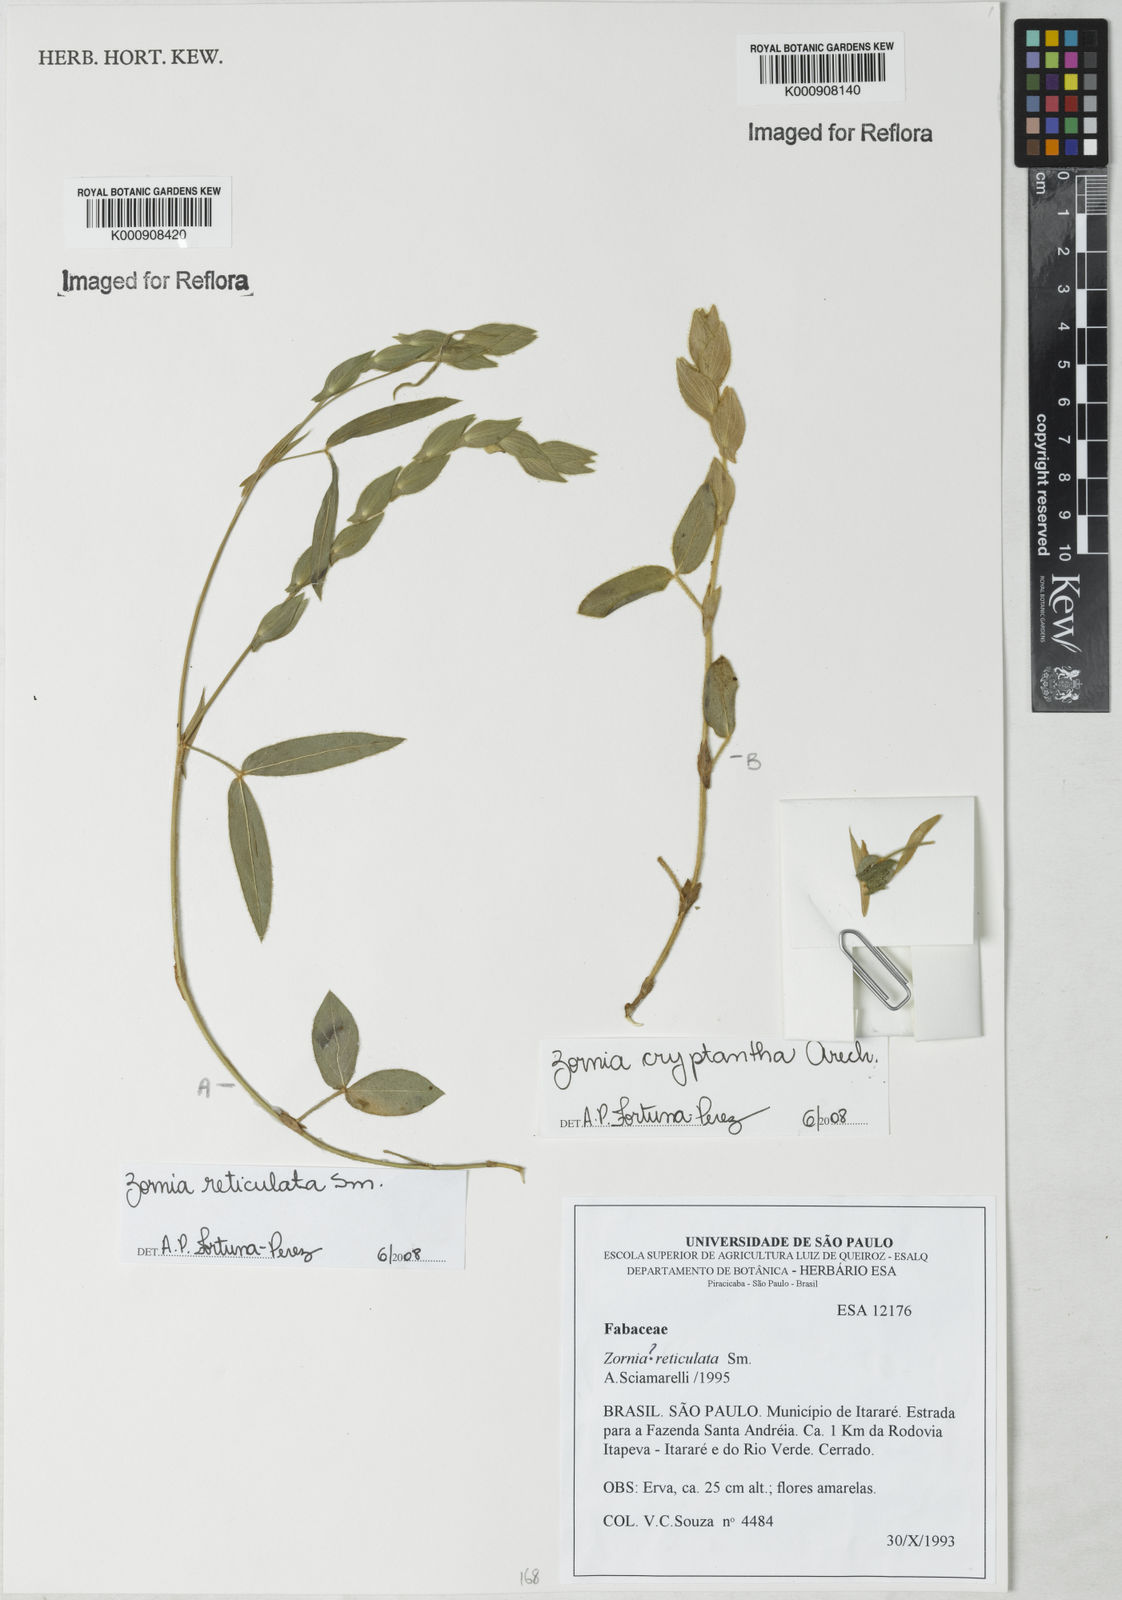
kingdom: Plantae
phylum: Tracheophyta
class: Magnoliopsida
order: Fabales
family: Fabaceae
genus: Zornia
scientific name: Zornia reticulata
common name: Reticulate viperina
